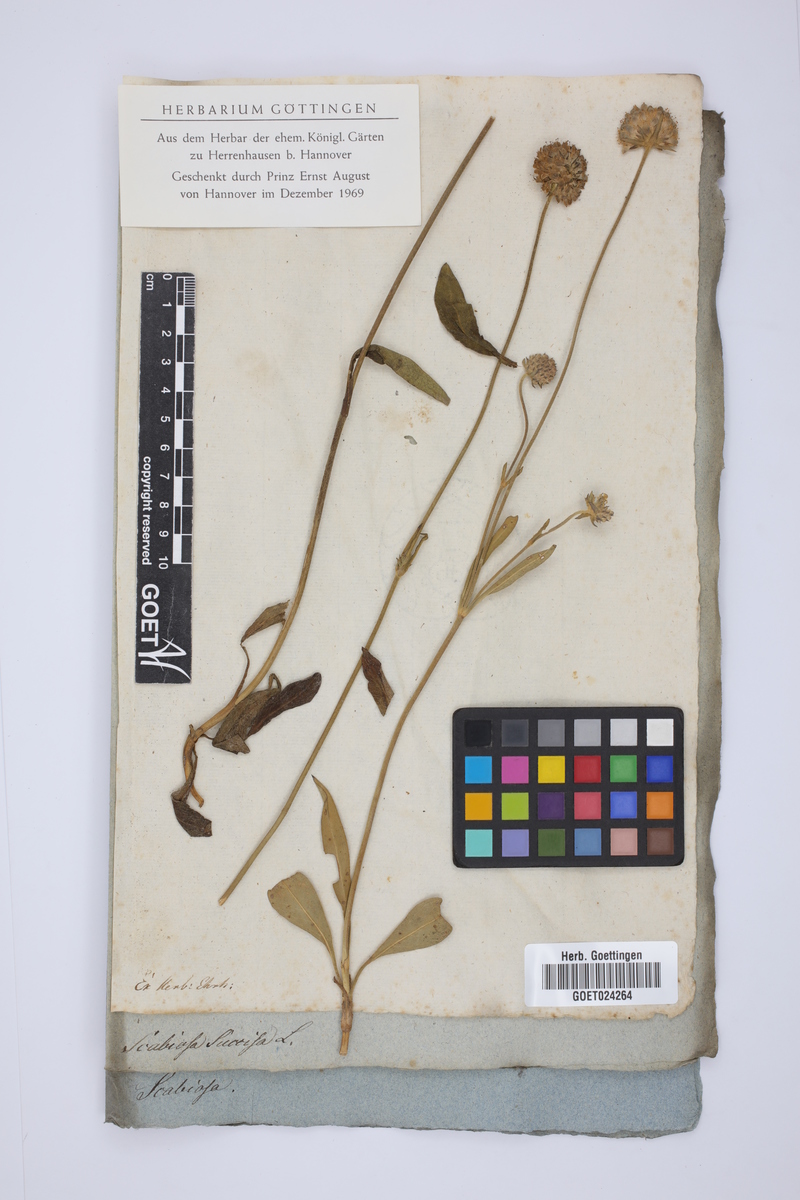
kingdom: Plantae
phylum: Tracheophyta
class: Magnoliopsida
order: Dipsacales
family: Caprifoliaceae
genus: Succisa
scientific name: Succisa pratensis
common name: Devil's-bit
